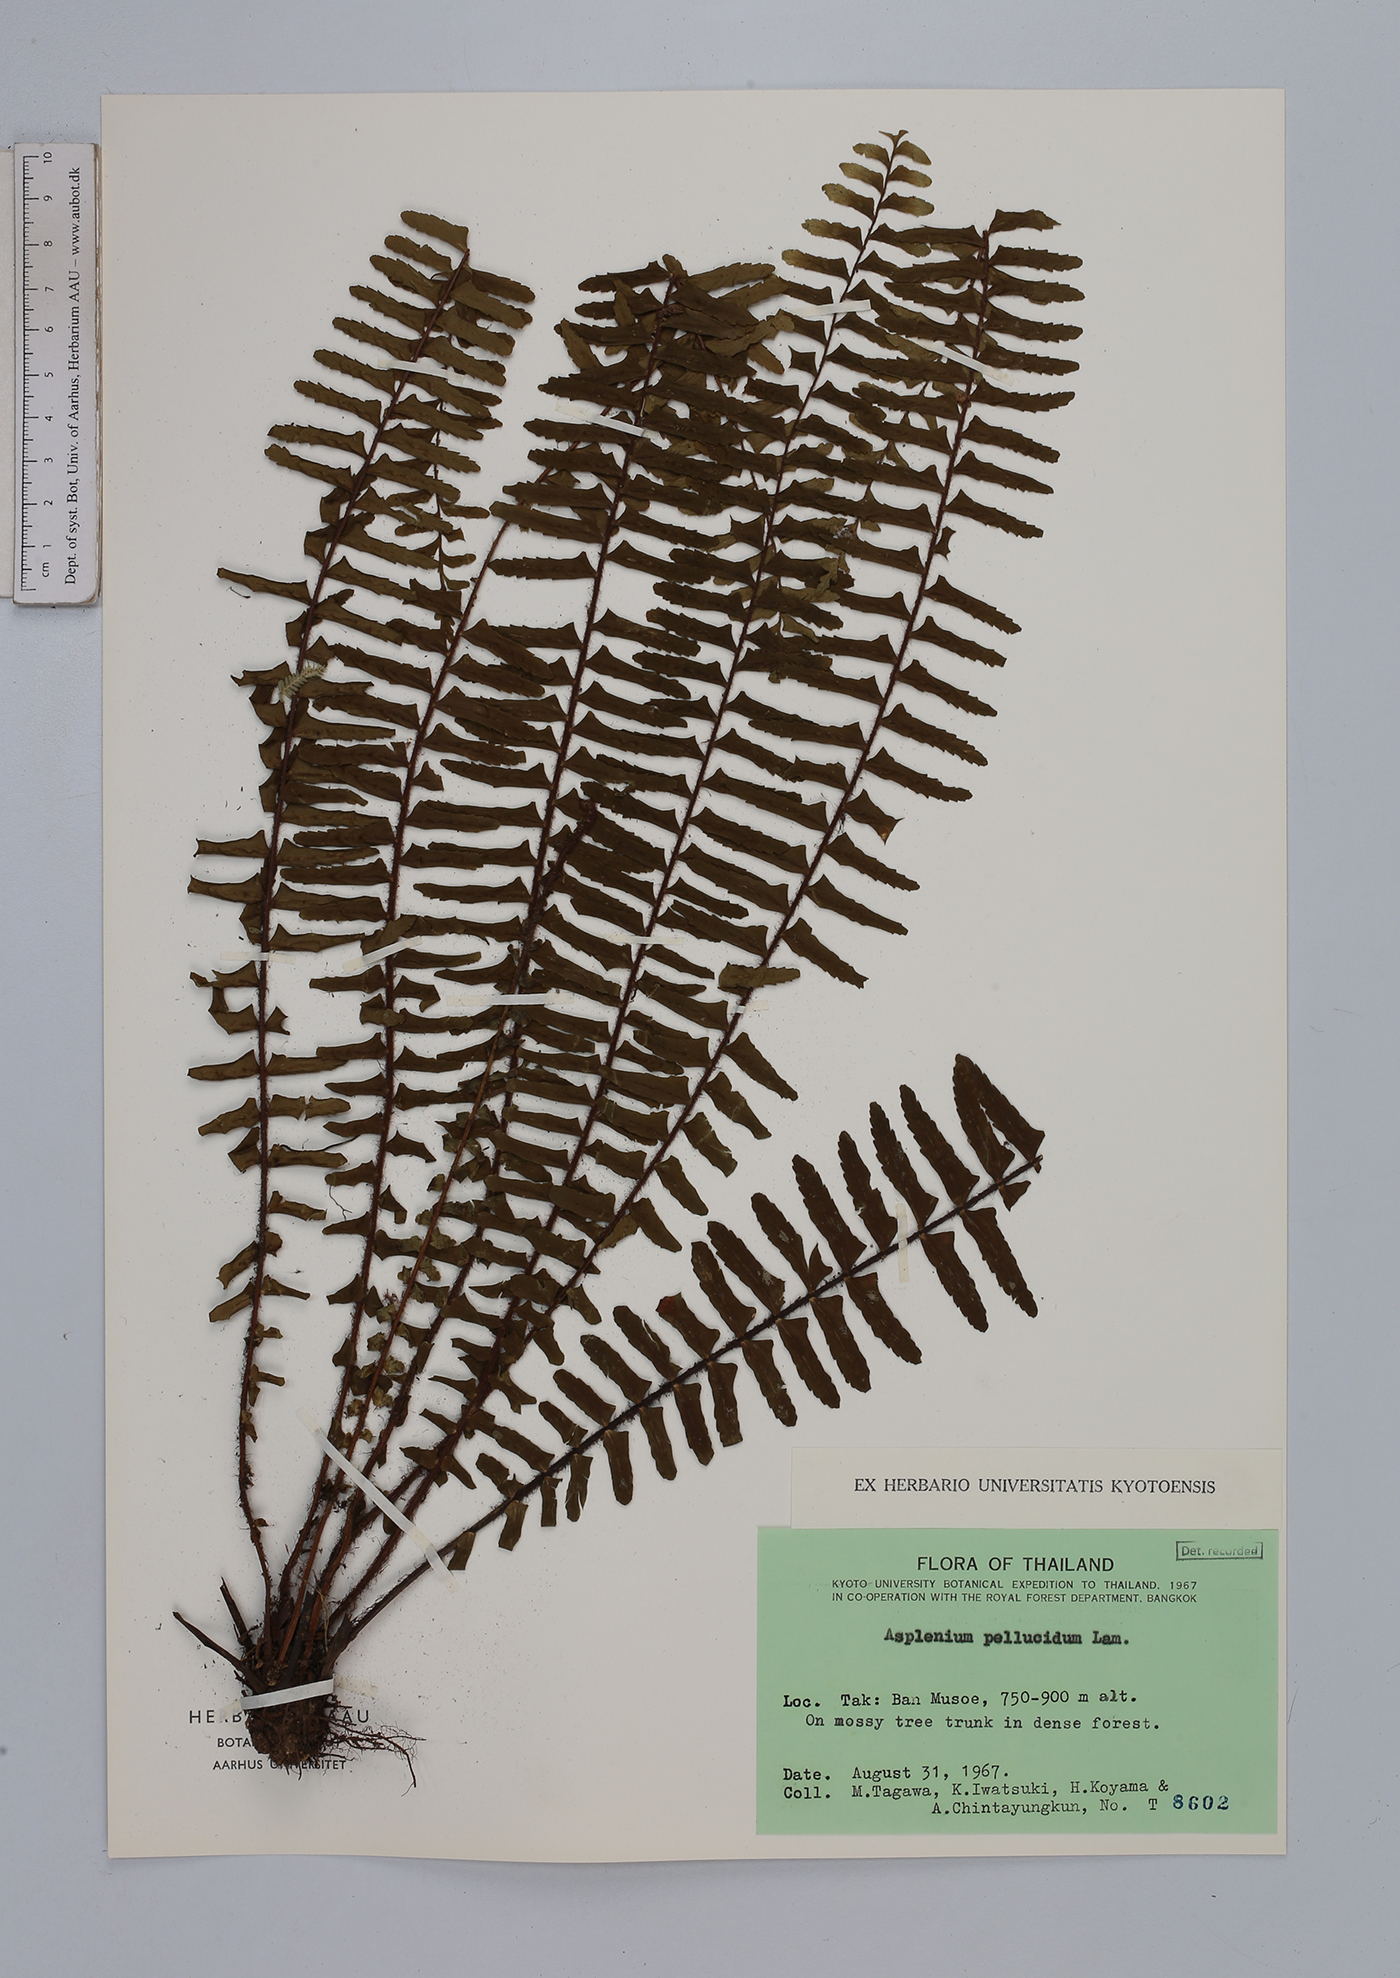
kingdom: Plantae
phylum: Tracheophyta
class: Polypodiopsida
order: Polypodiales
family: Aspleniaceae
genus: Asplenium
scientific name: Asplenium pellucidum
